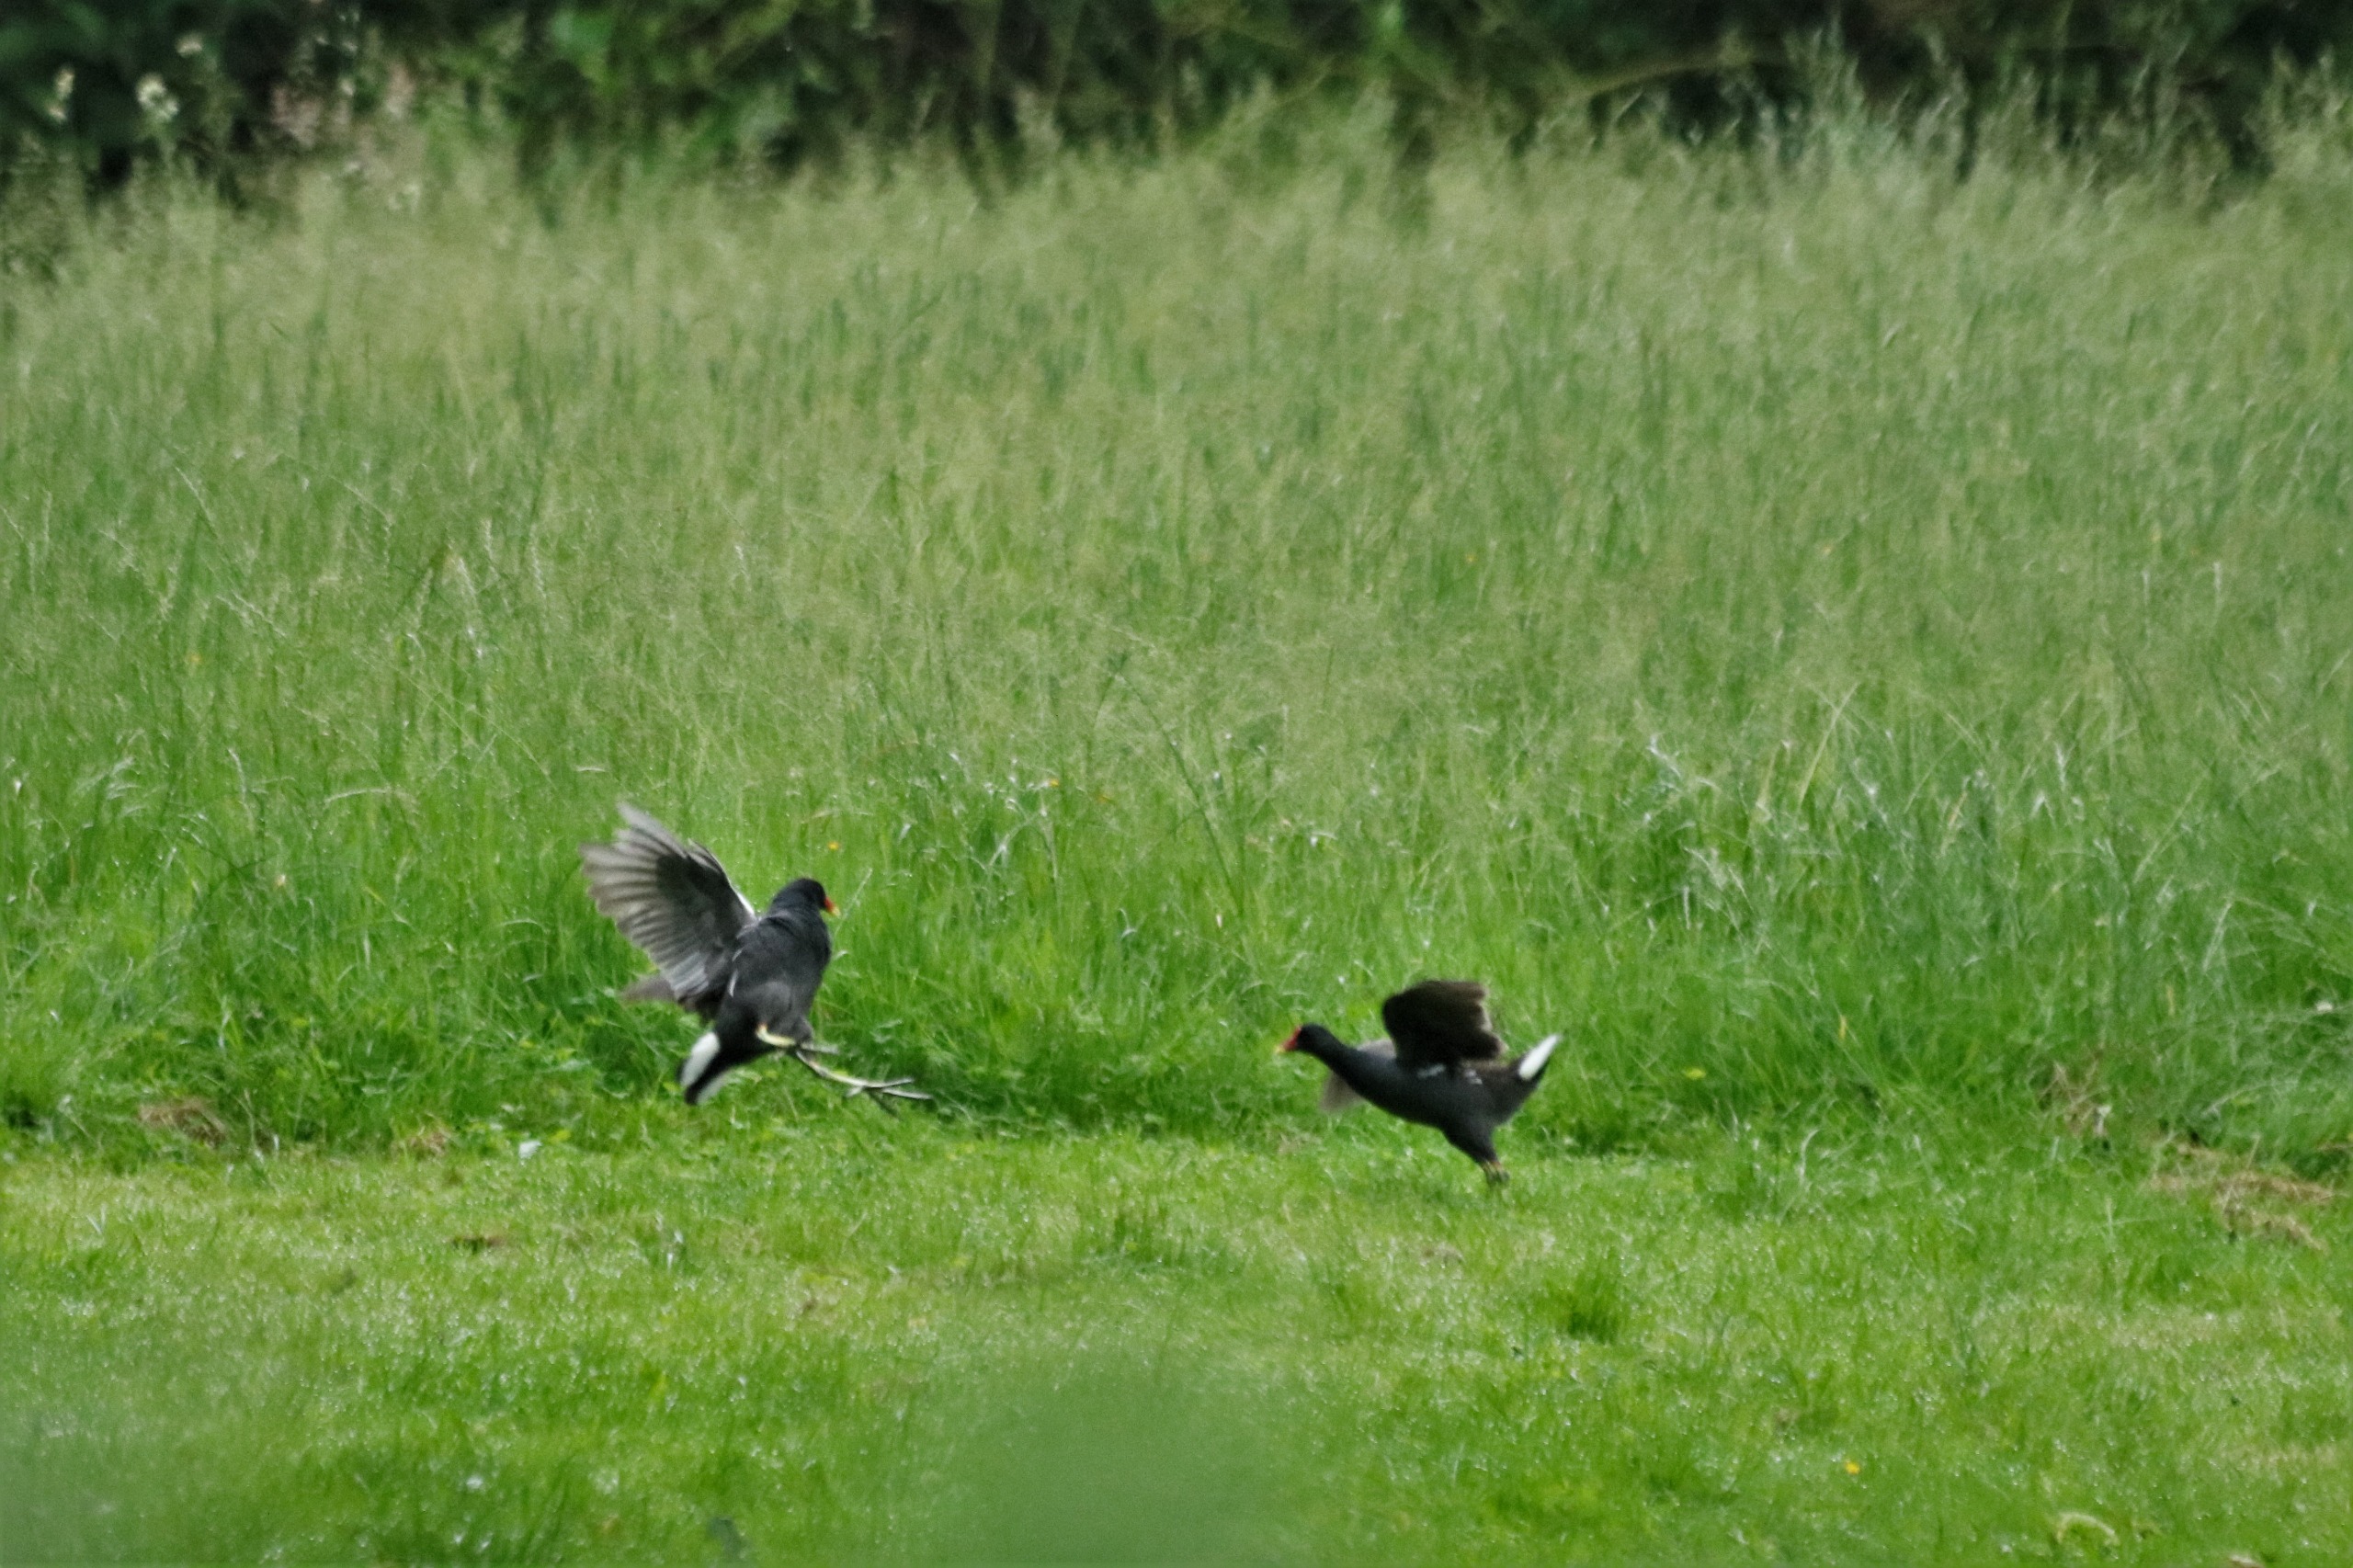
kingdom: Animalia
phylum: Chordata
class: Aves
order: Gruiformes
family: Rallidae
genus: Gallinula
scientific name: Gallinula chloropus
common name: Grønbenet rørhøne
